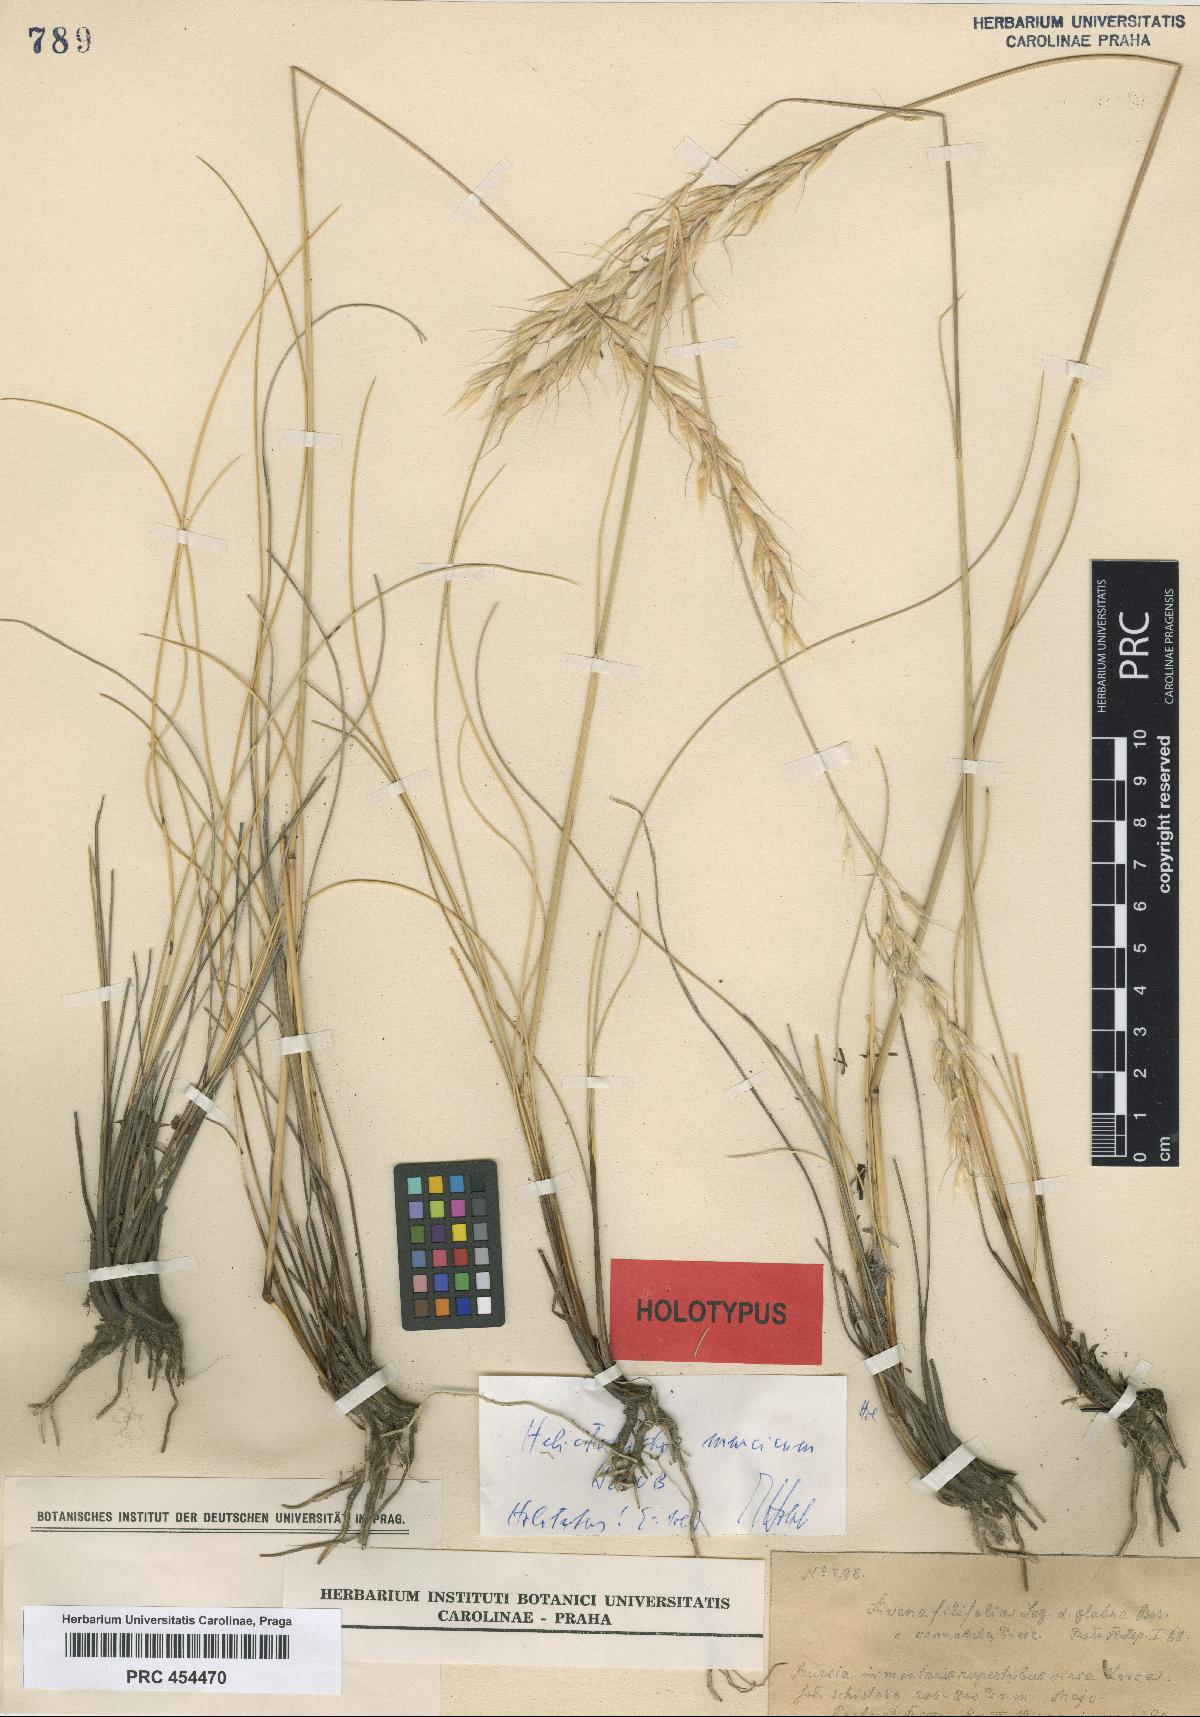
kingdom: Plantae
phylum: Tracheophyta
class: Liliopsida
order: Poales
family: Poaceae
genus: Helictotrichon
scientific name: Helictotrichon murcicum
